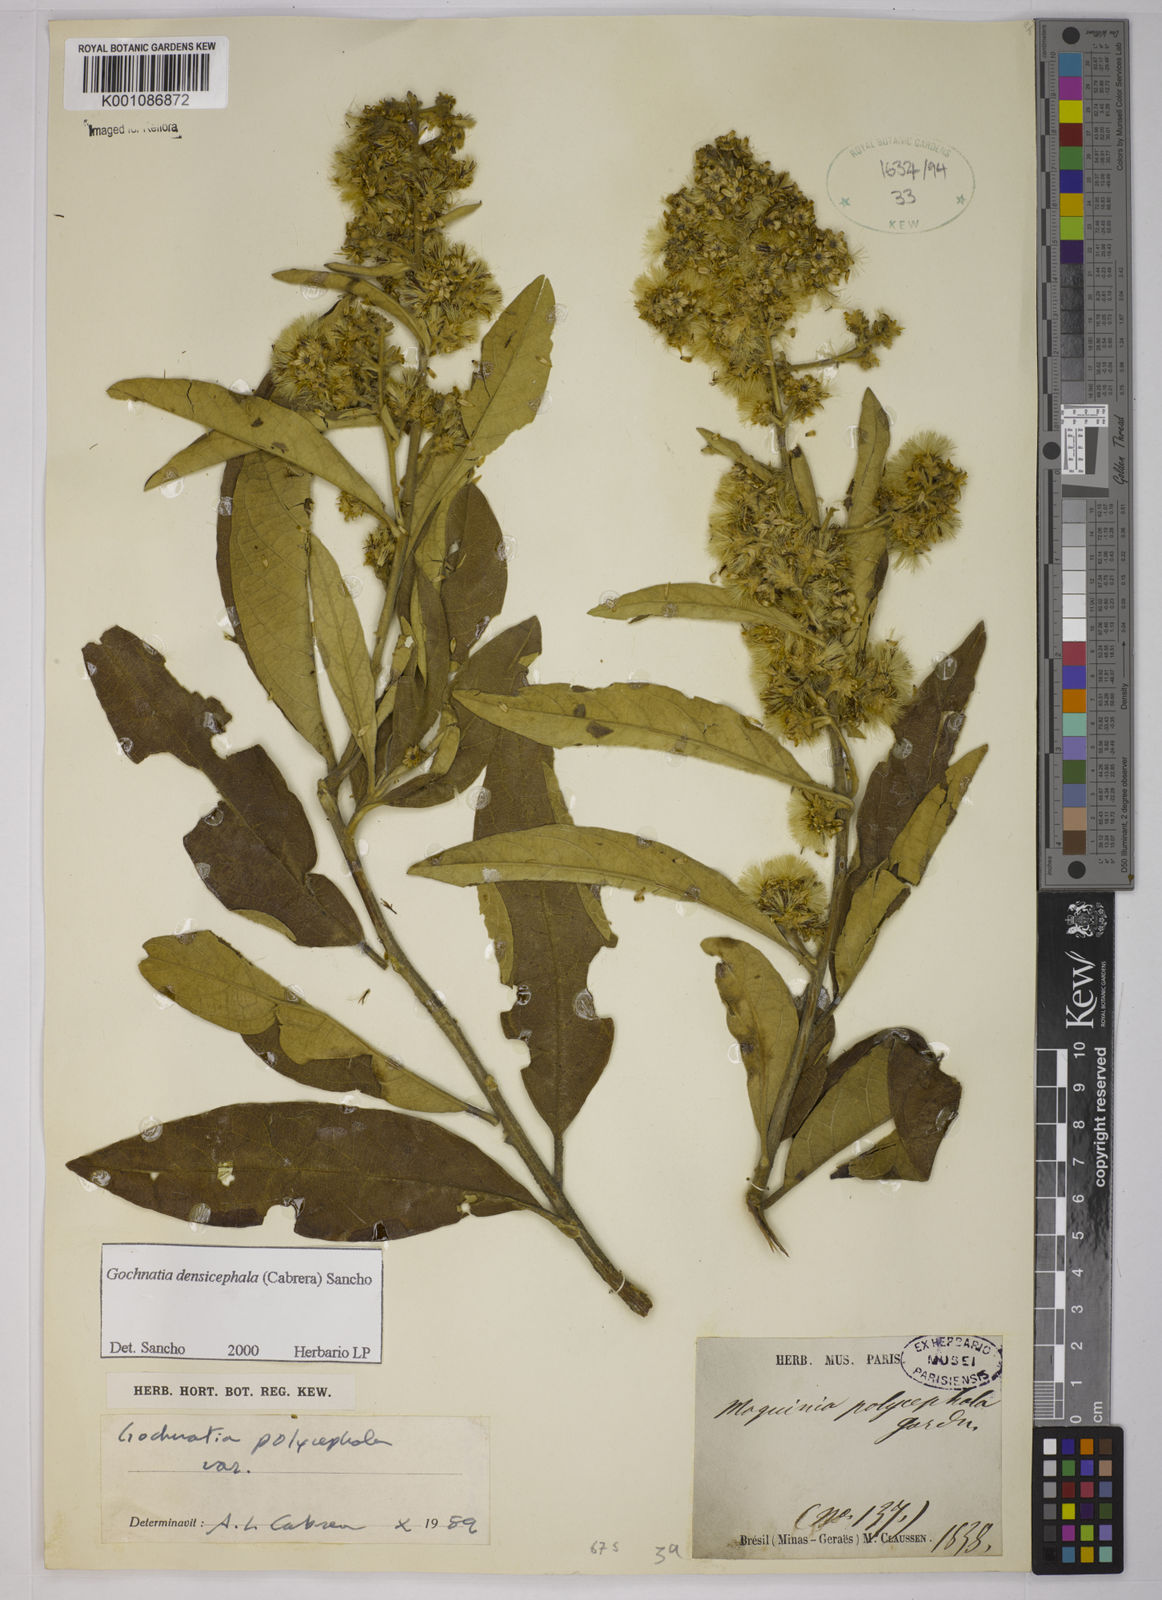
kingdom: Plantae
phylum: Tracheophyta
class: Magnoliopsida
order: Asterales
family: Asteraceae
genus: Moquiniastrum
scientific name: Moquiniastrum densicephalum
